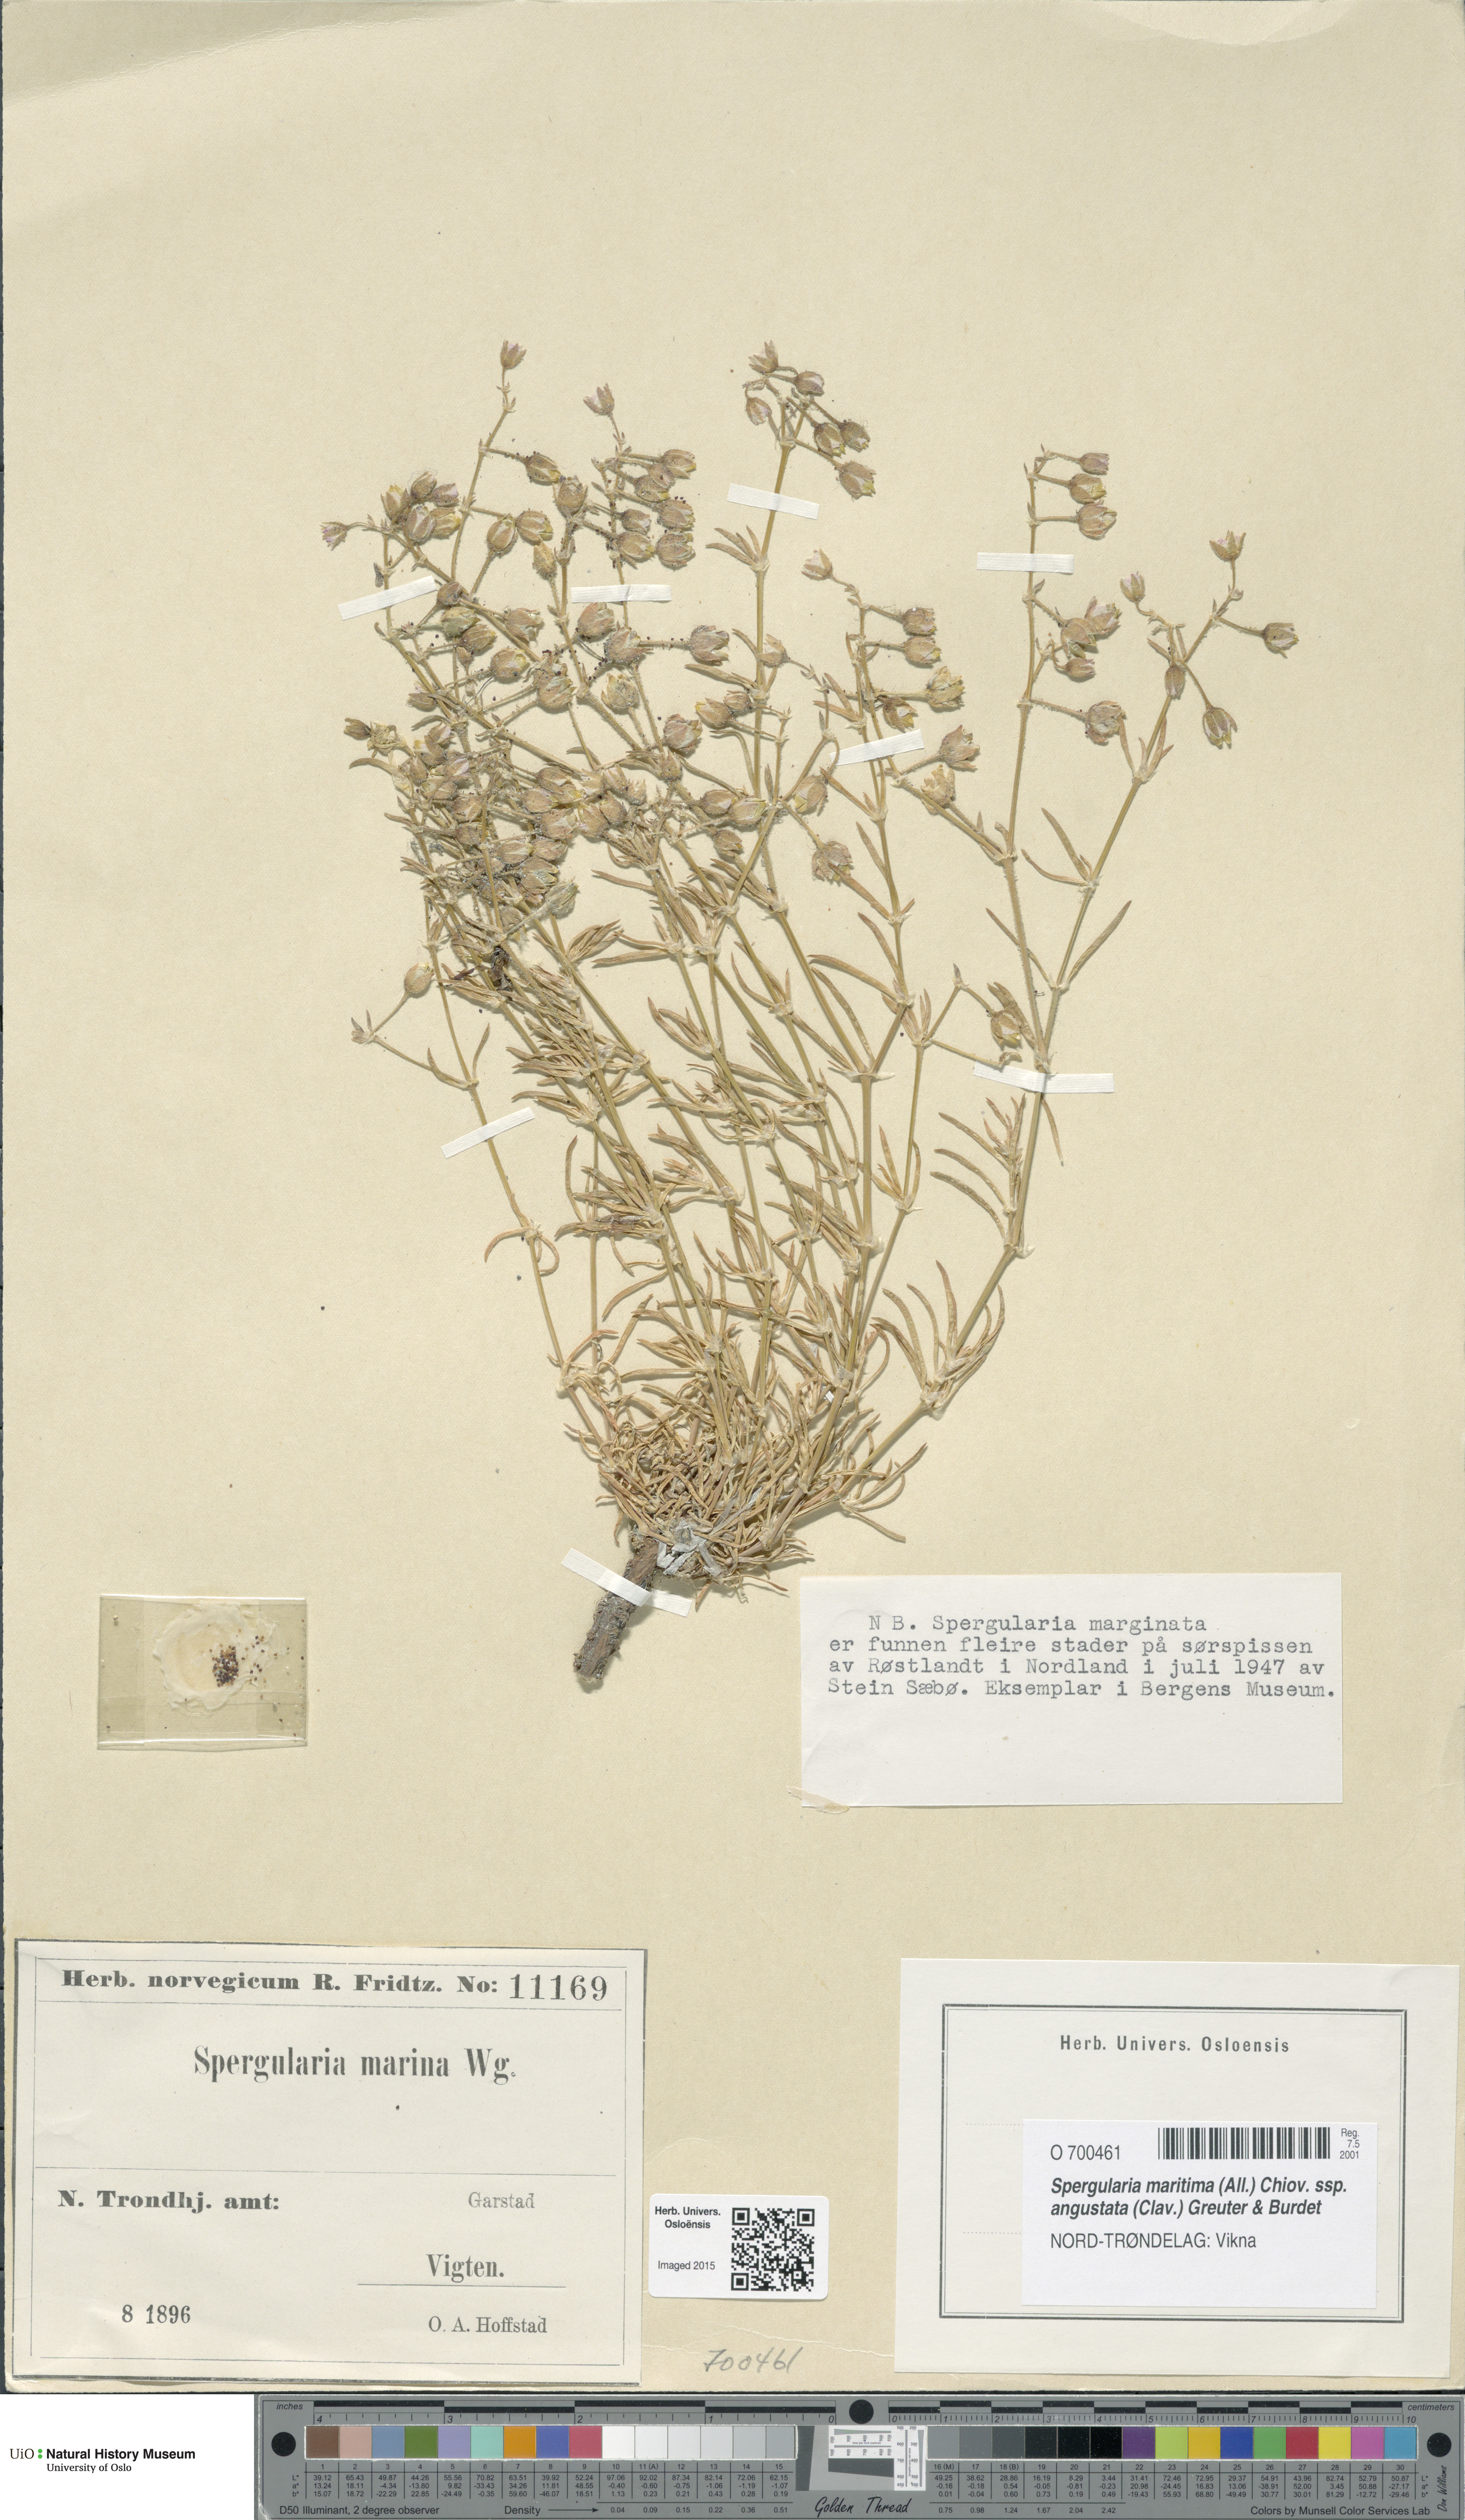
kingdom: Plantae
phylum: Tracheophyta
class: Magnoliopsida
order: Caryophyllales
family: Caryophyllaceae
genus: Spergularia
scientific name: Spergularia media
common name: Greater sea-spurrey
